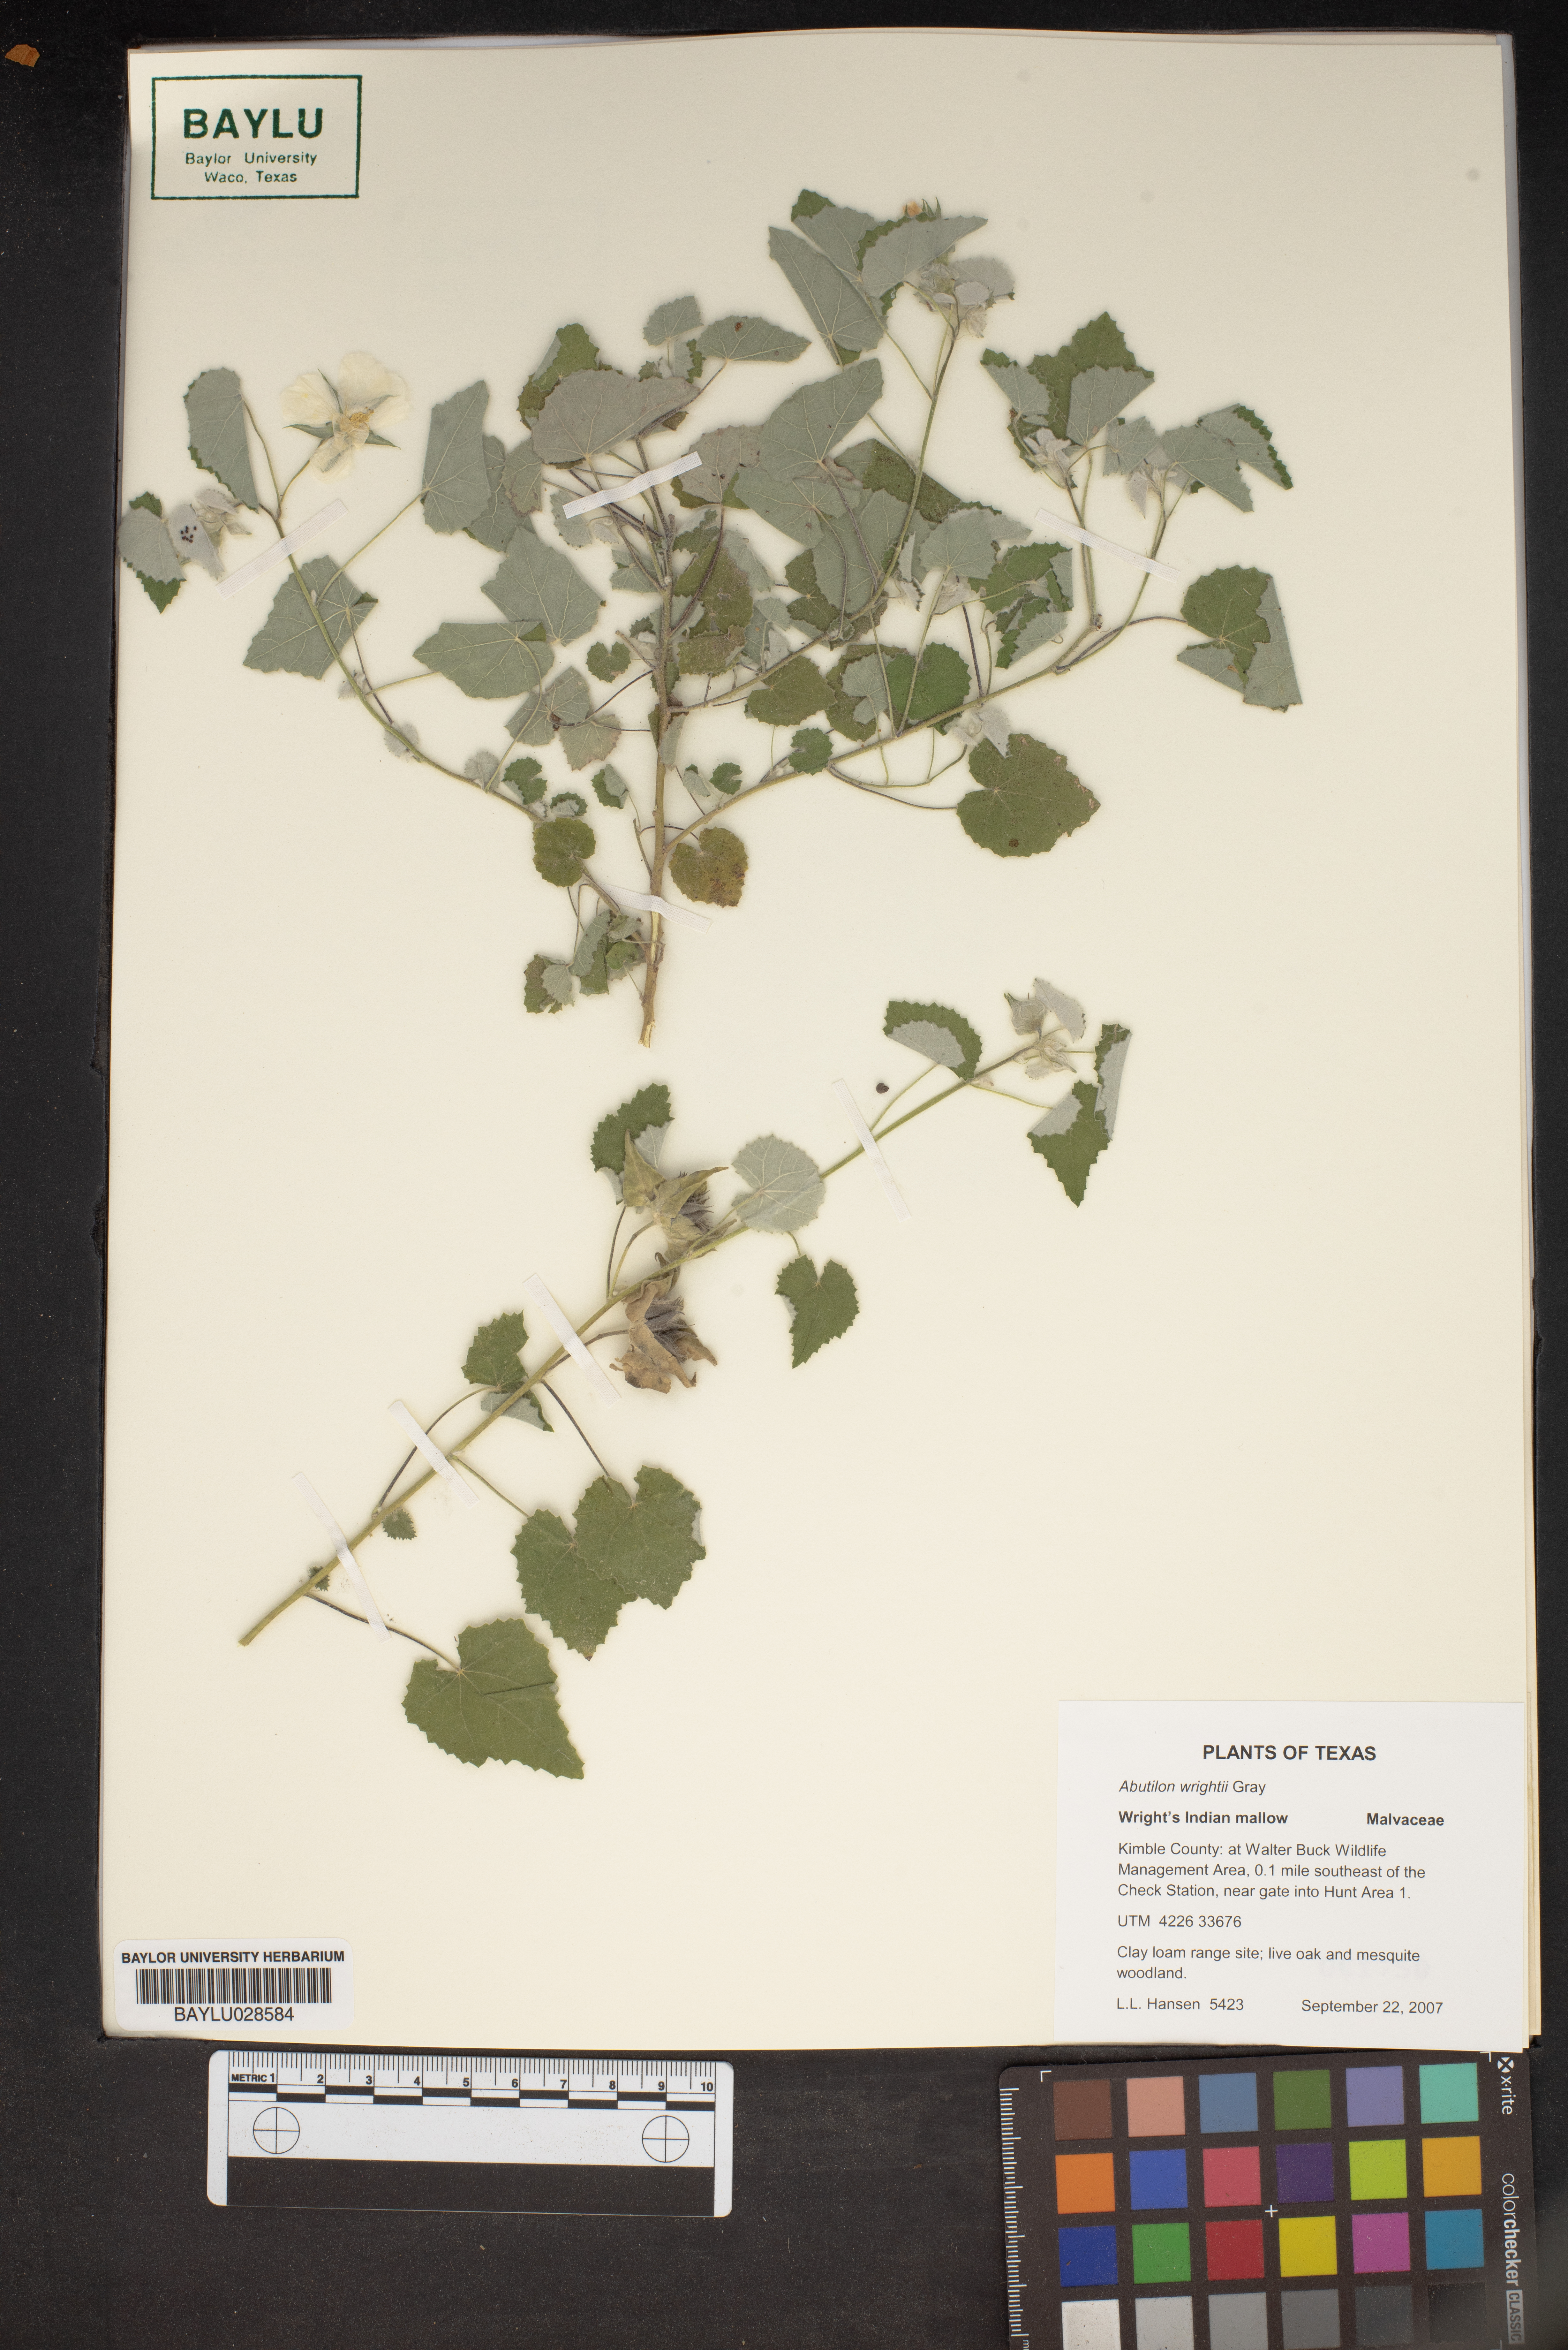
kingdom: Plantae
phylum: Tracheophyta
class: Magnoliopsida
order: Malvales
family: Malvaceae
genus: Abutilon
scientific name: Abutilon wrightii
